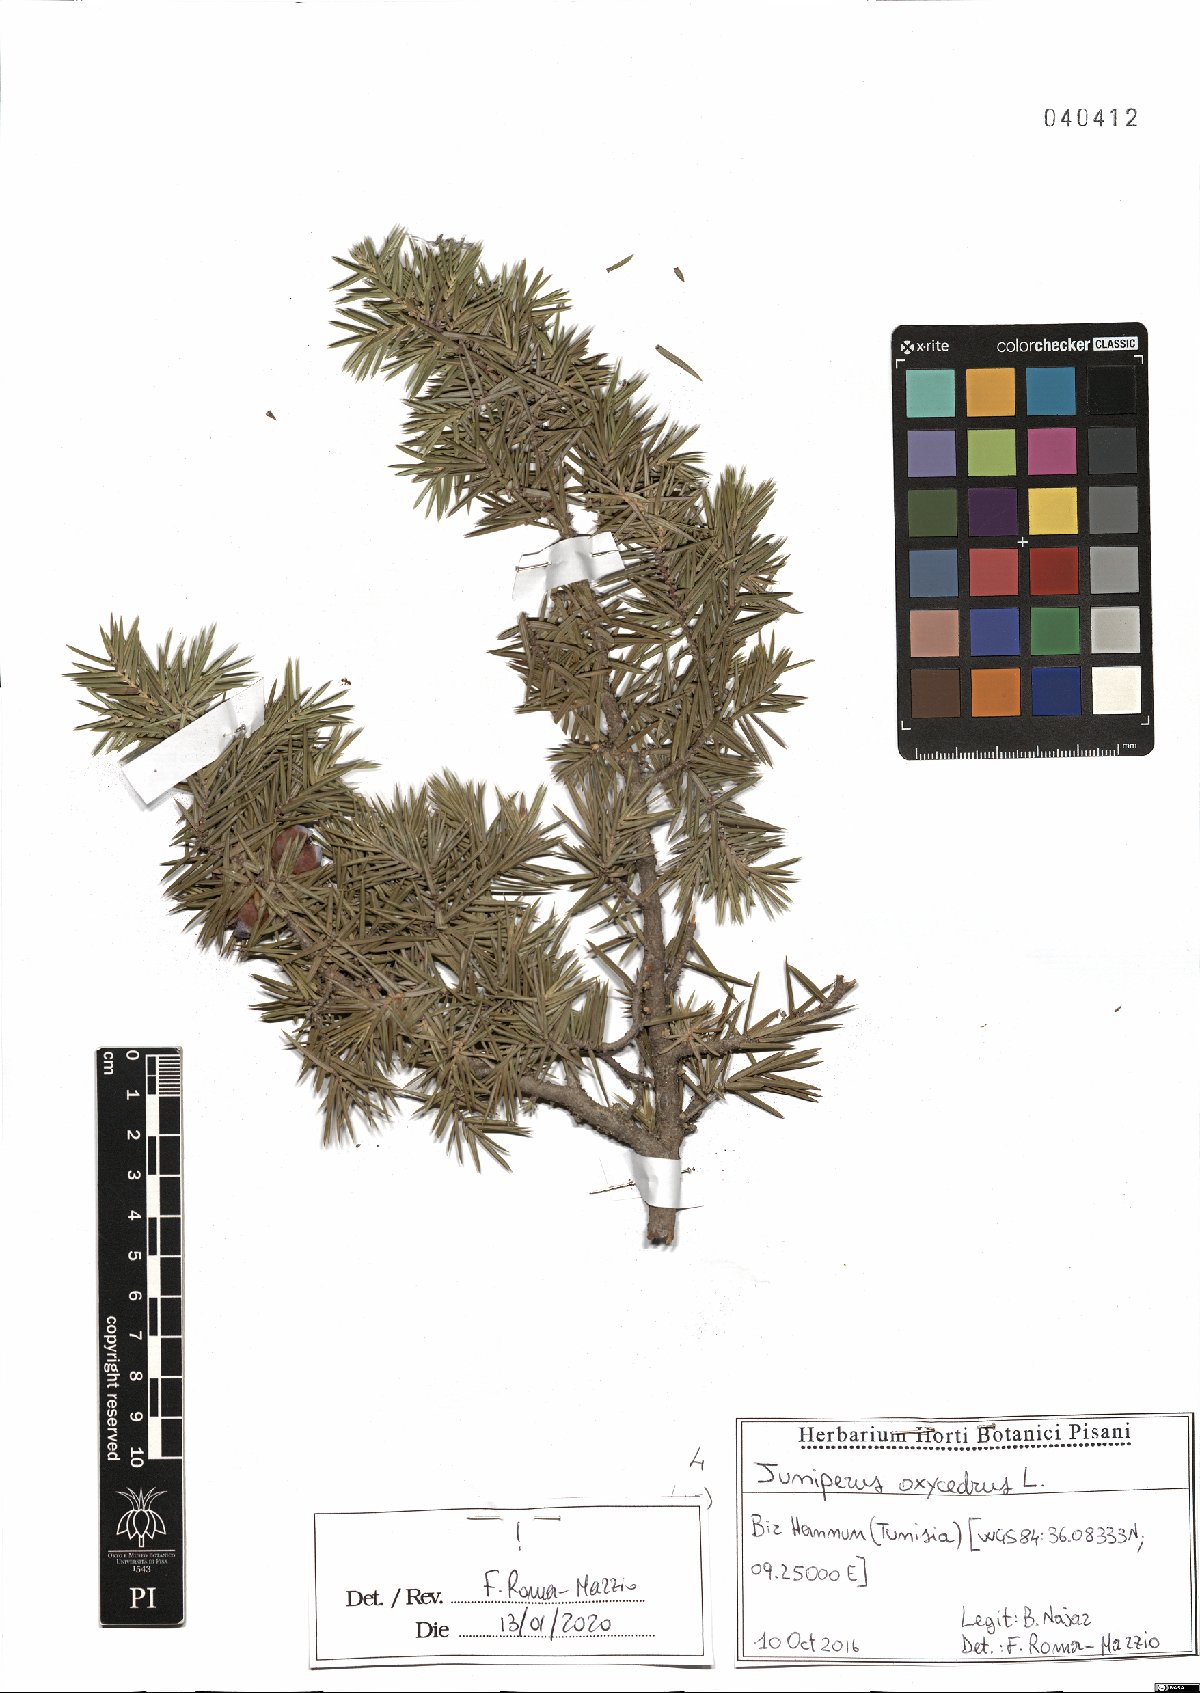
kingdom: Plantae
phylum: Tracheophyta
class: Pinopsida
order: Pinales
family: Cupressaceae
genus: Juniperus
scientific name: Juniperus oxycedrus
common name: Prickly juniper
